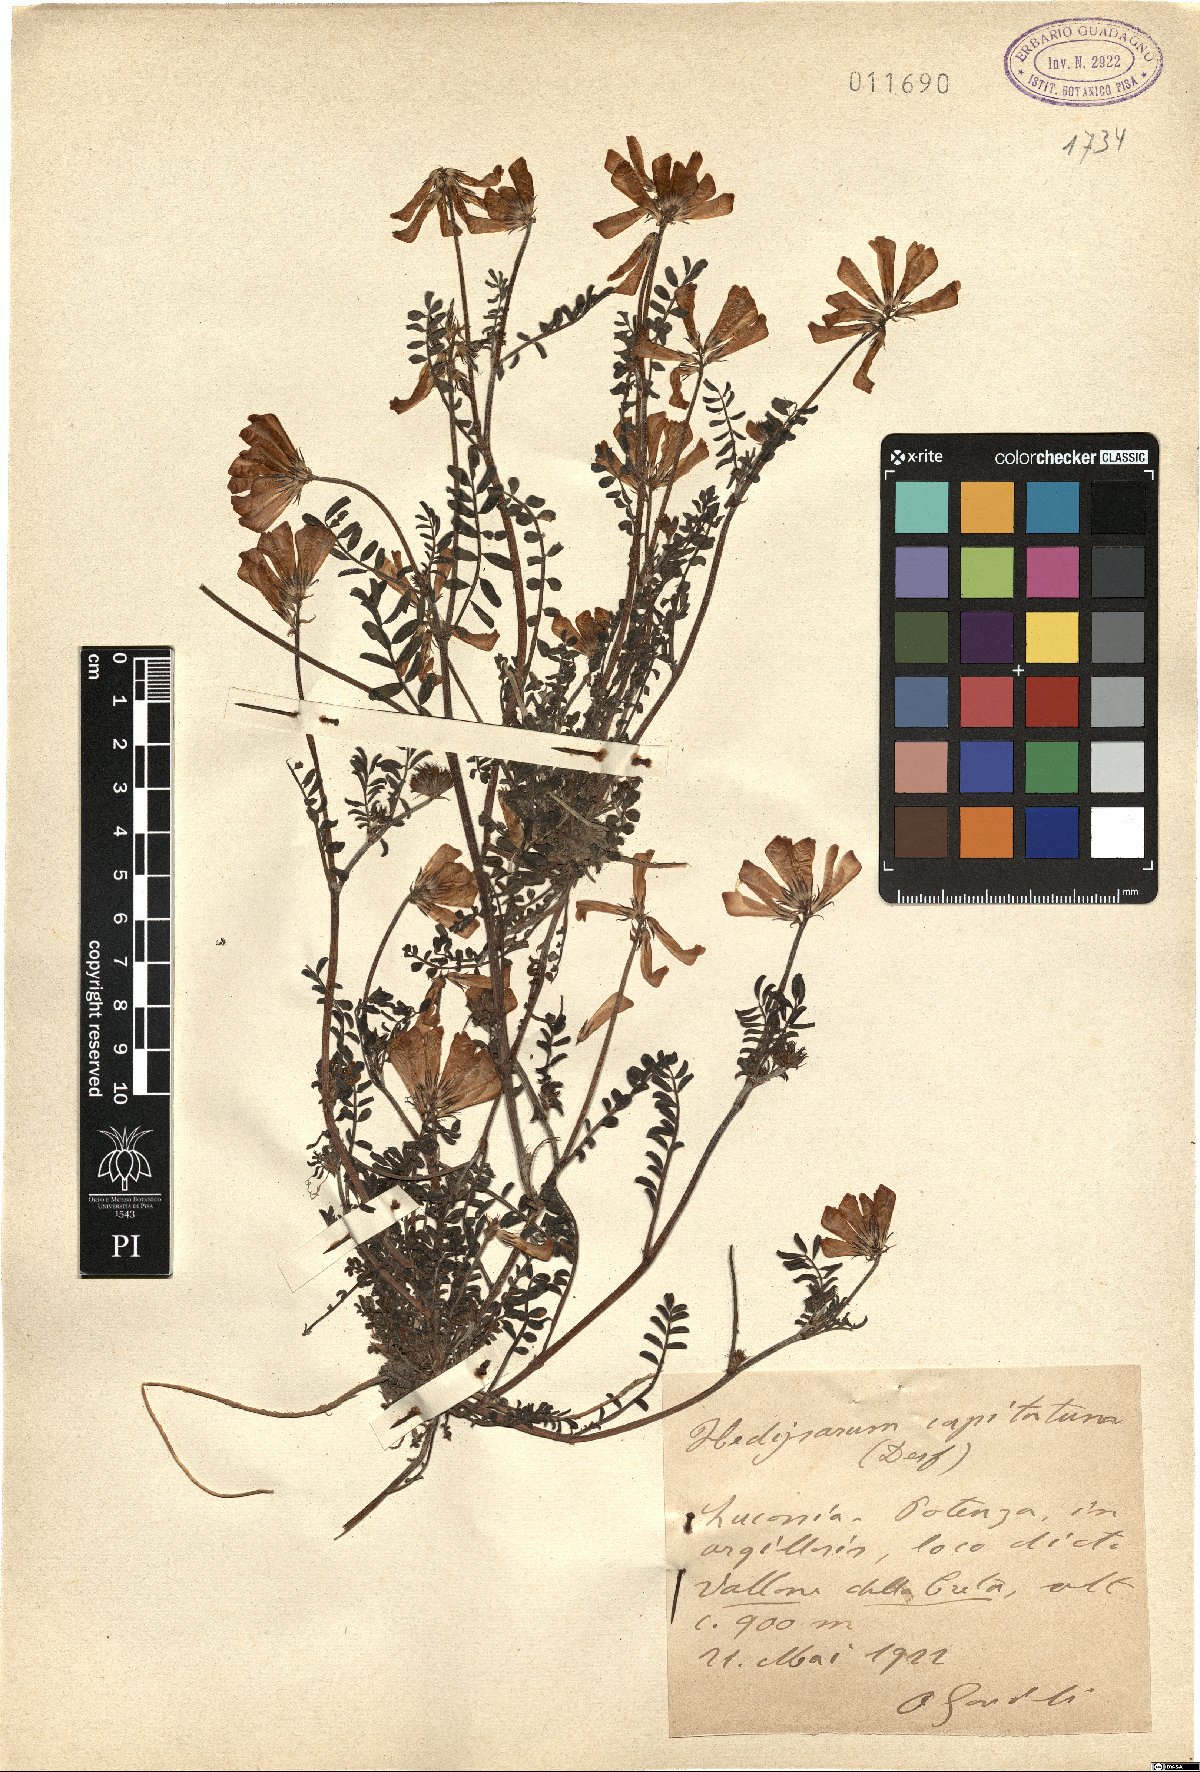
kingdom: Plantae
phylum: Tracheophyta
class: Magnoliopsida
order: Fabales
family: Fabaceae
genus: Sulla
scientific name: Sulla glomerata
